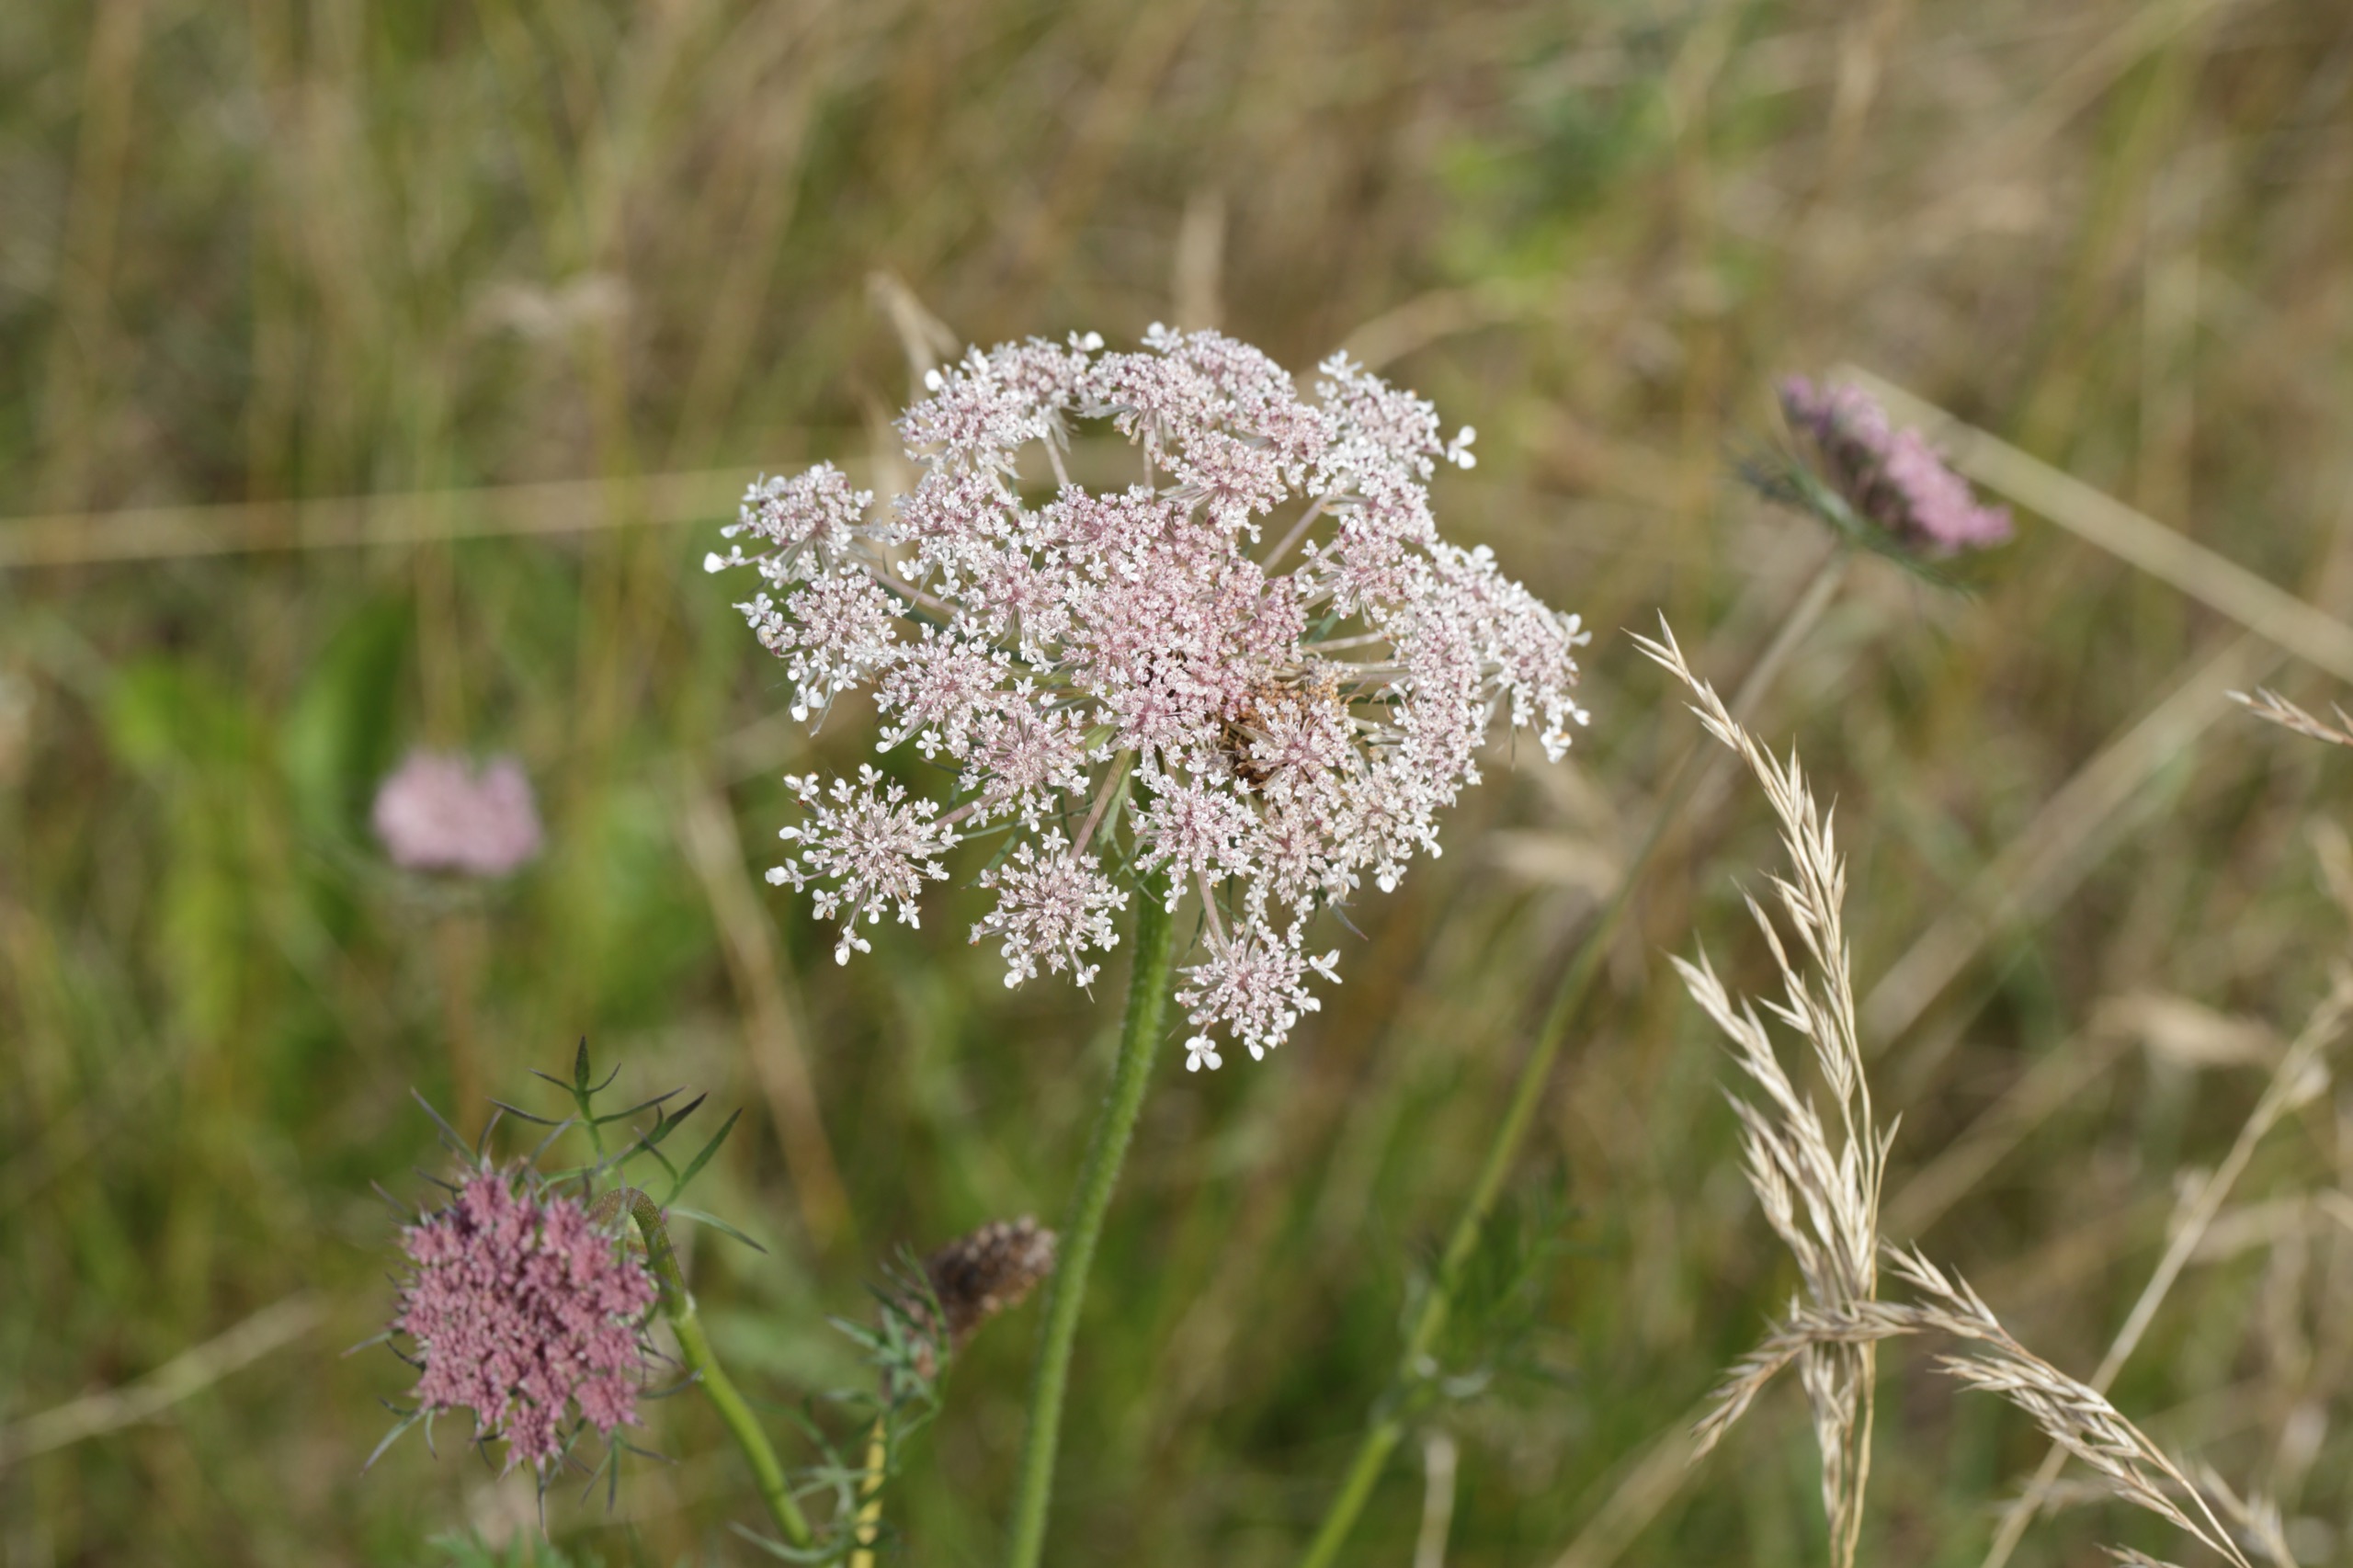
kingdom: Plantae
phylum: Tracheophyta
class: Magnoliopsida
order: Apiales
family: Apiaceae
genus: Daucus
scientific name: Daucus carota
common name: Gulerod
